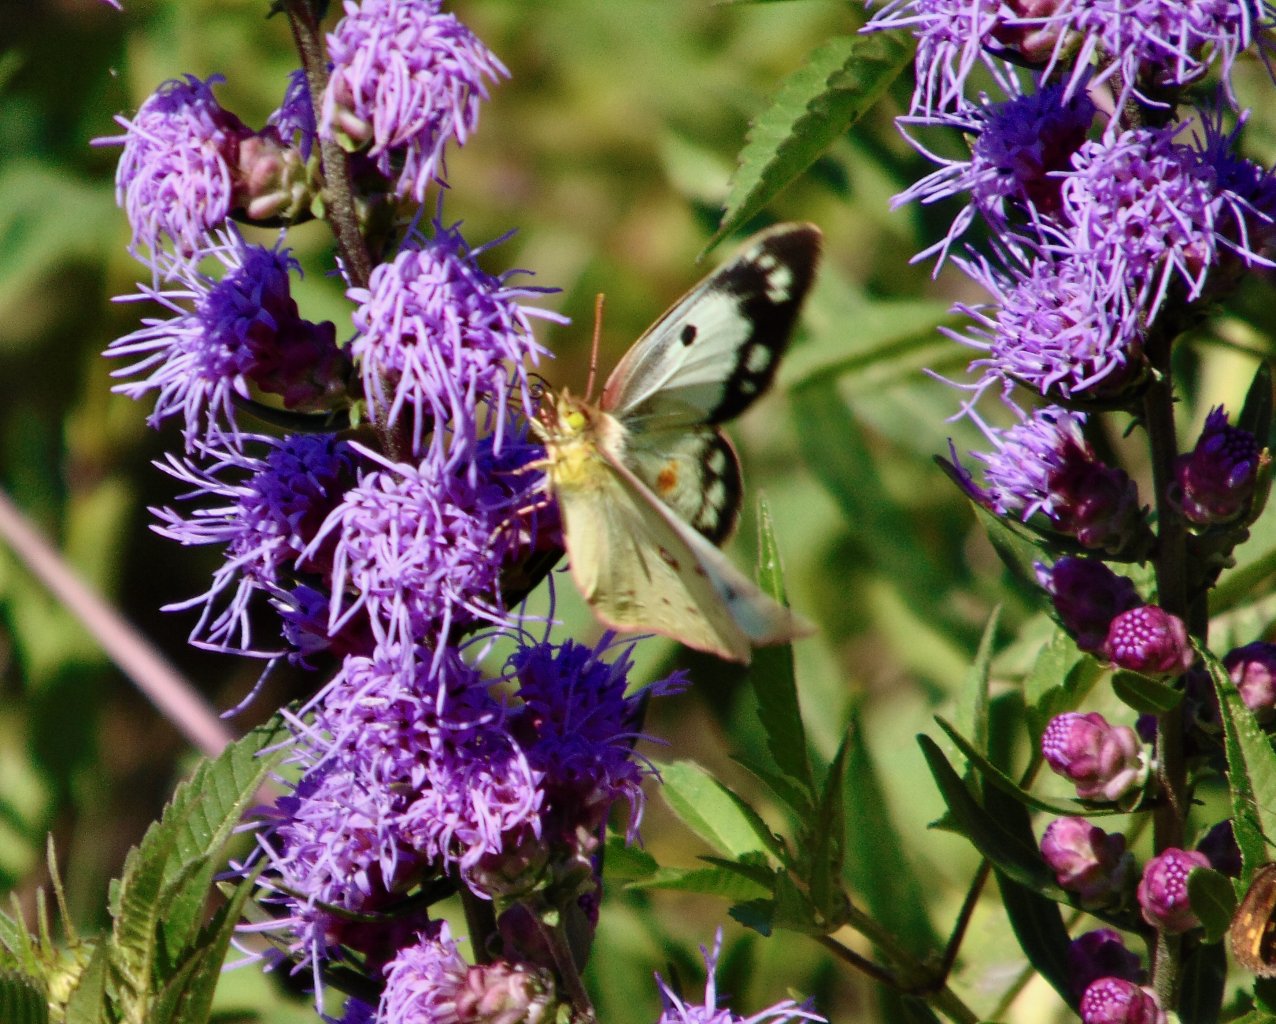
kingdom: Animalia
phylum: Arthropoda
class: Insecta
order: Lepidoptera
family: Pieridae
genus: Colias
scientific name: Colias philodice
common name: Clouded Sulphur
